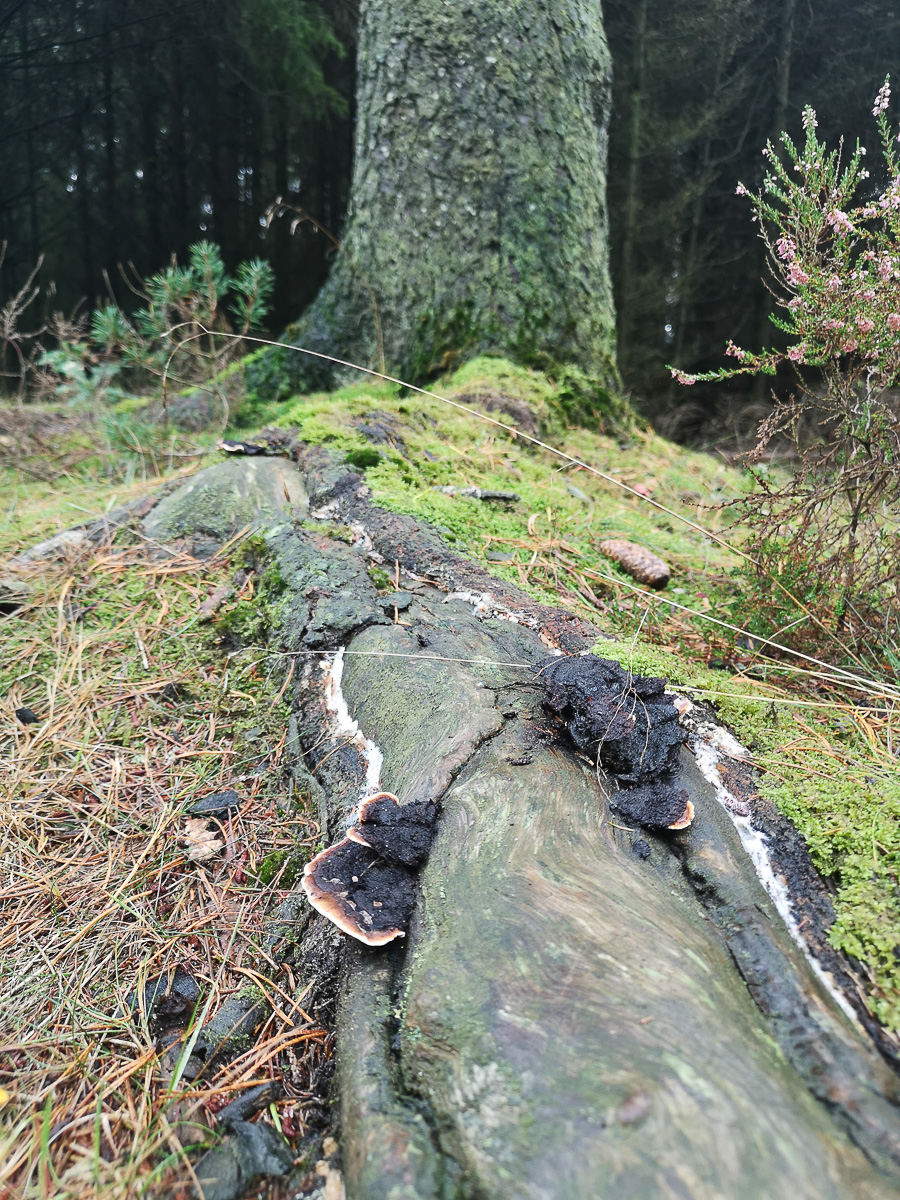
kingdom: Fungi
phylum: Basidiomycota
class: Agaricomycetes
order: Gloeophyllales
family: Gloeophyllaceae
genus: Gloeophyllum
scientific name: Gloeophyllum sepiarium
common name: fyrre-korkhat
